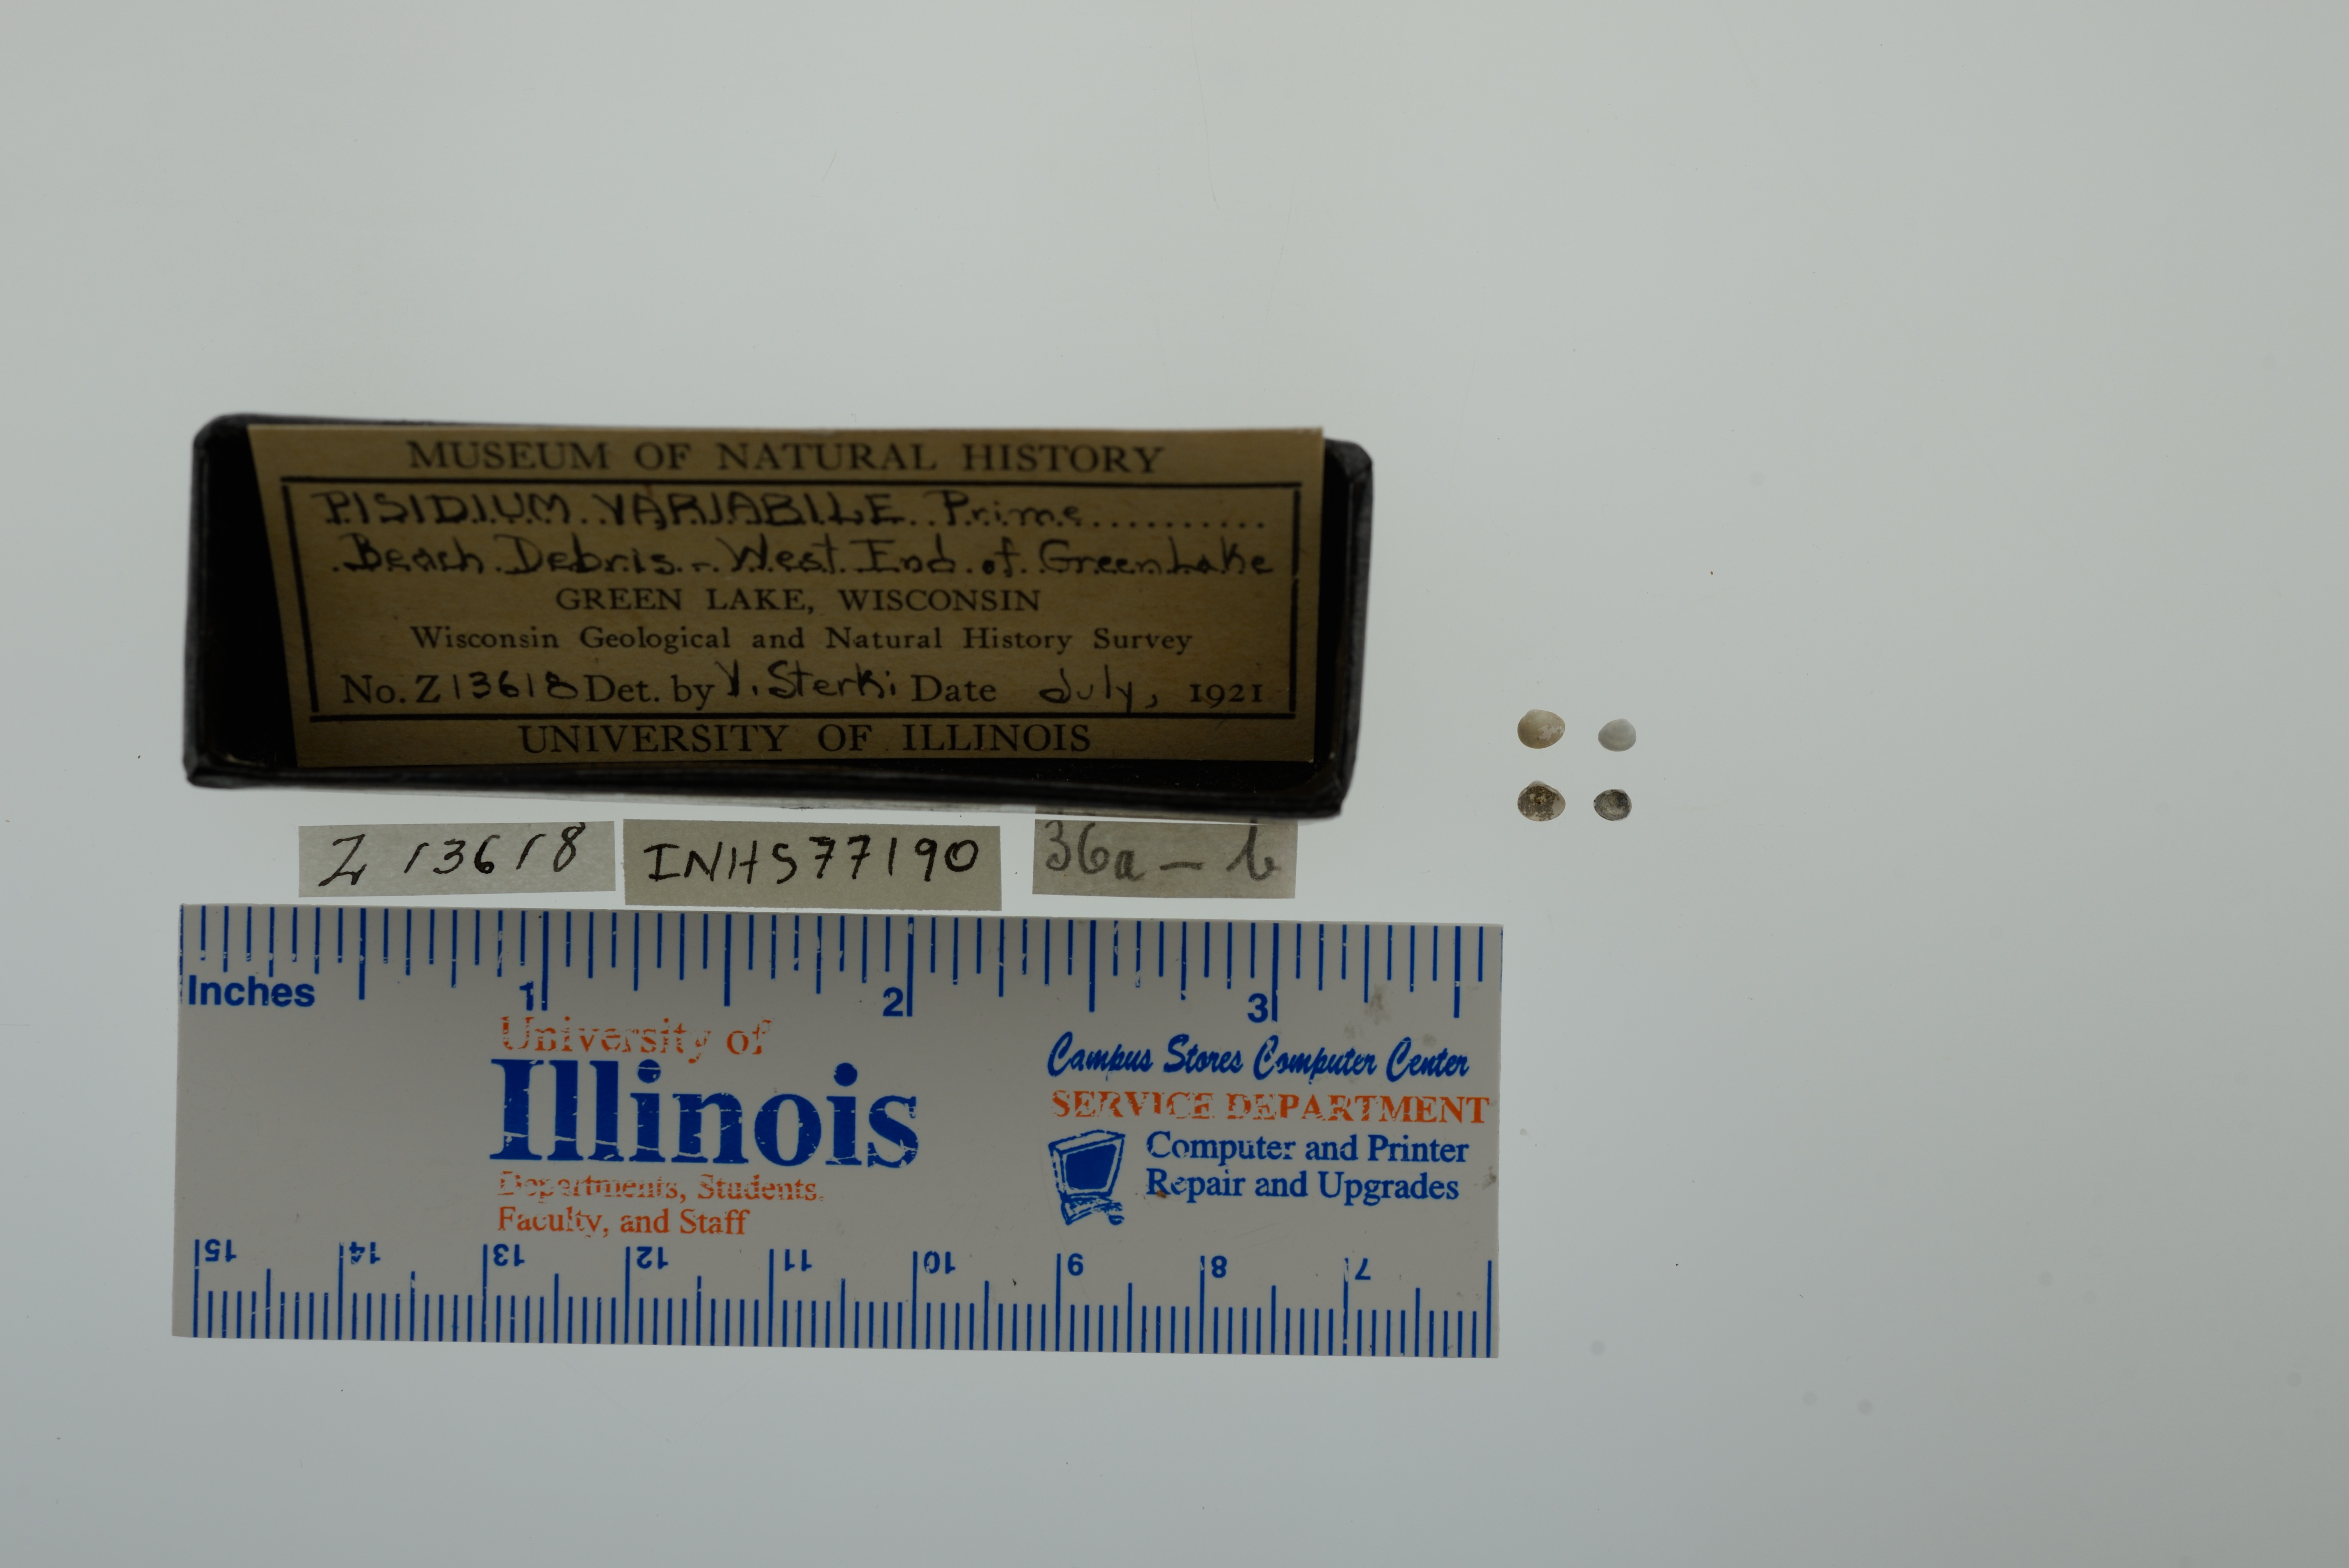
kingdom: Animalia
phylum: Mollusca
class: Bivalvia
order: Sphaeriida
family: Sphaeriidae
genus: Euglesa
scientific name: Euglesa variabilis
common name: Triangular peaclam
